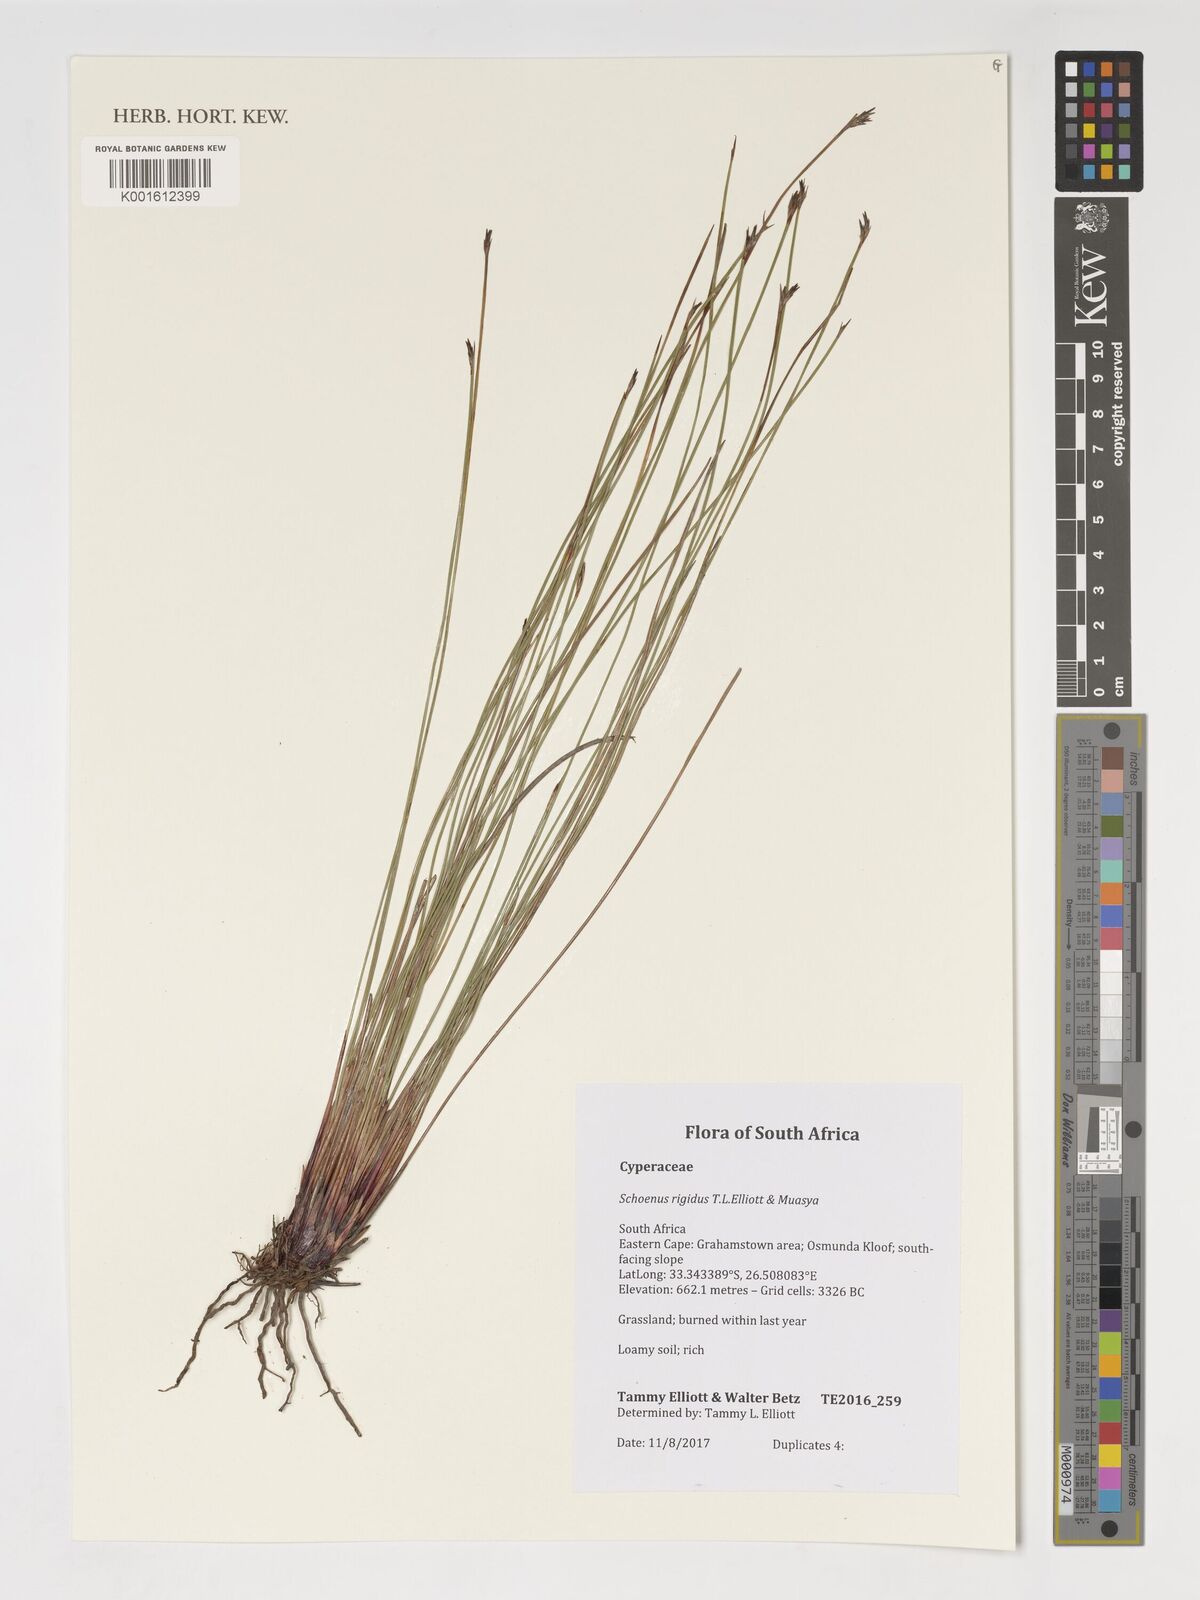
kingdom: Plantae
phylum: Tracheophyta
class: Liliopsida
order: Poales
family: Cyperaceae
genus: Schoenus
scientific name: Schoenus
